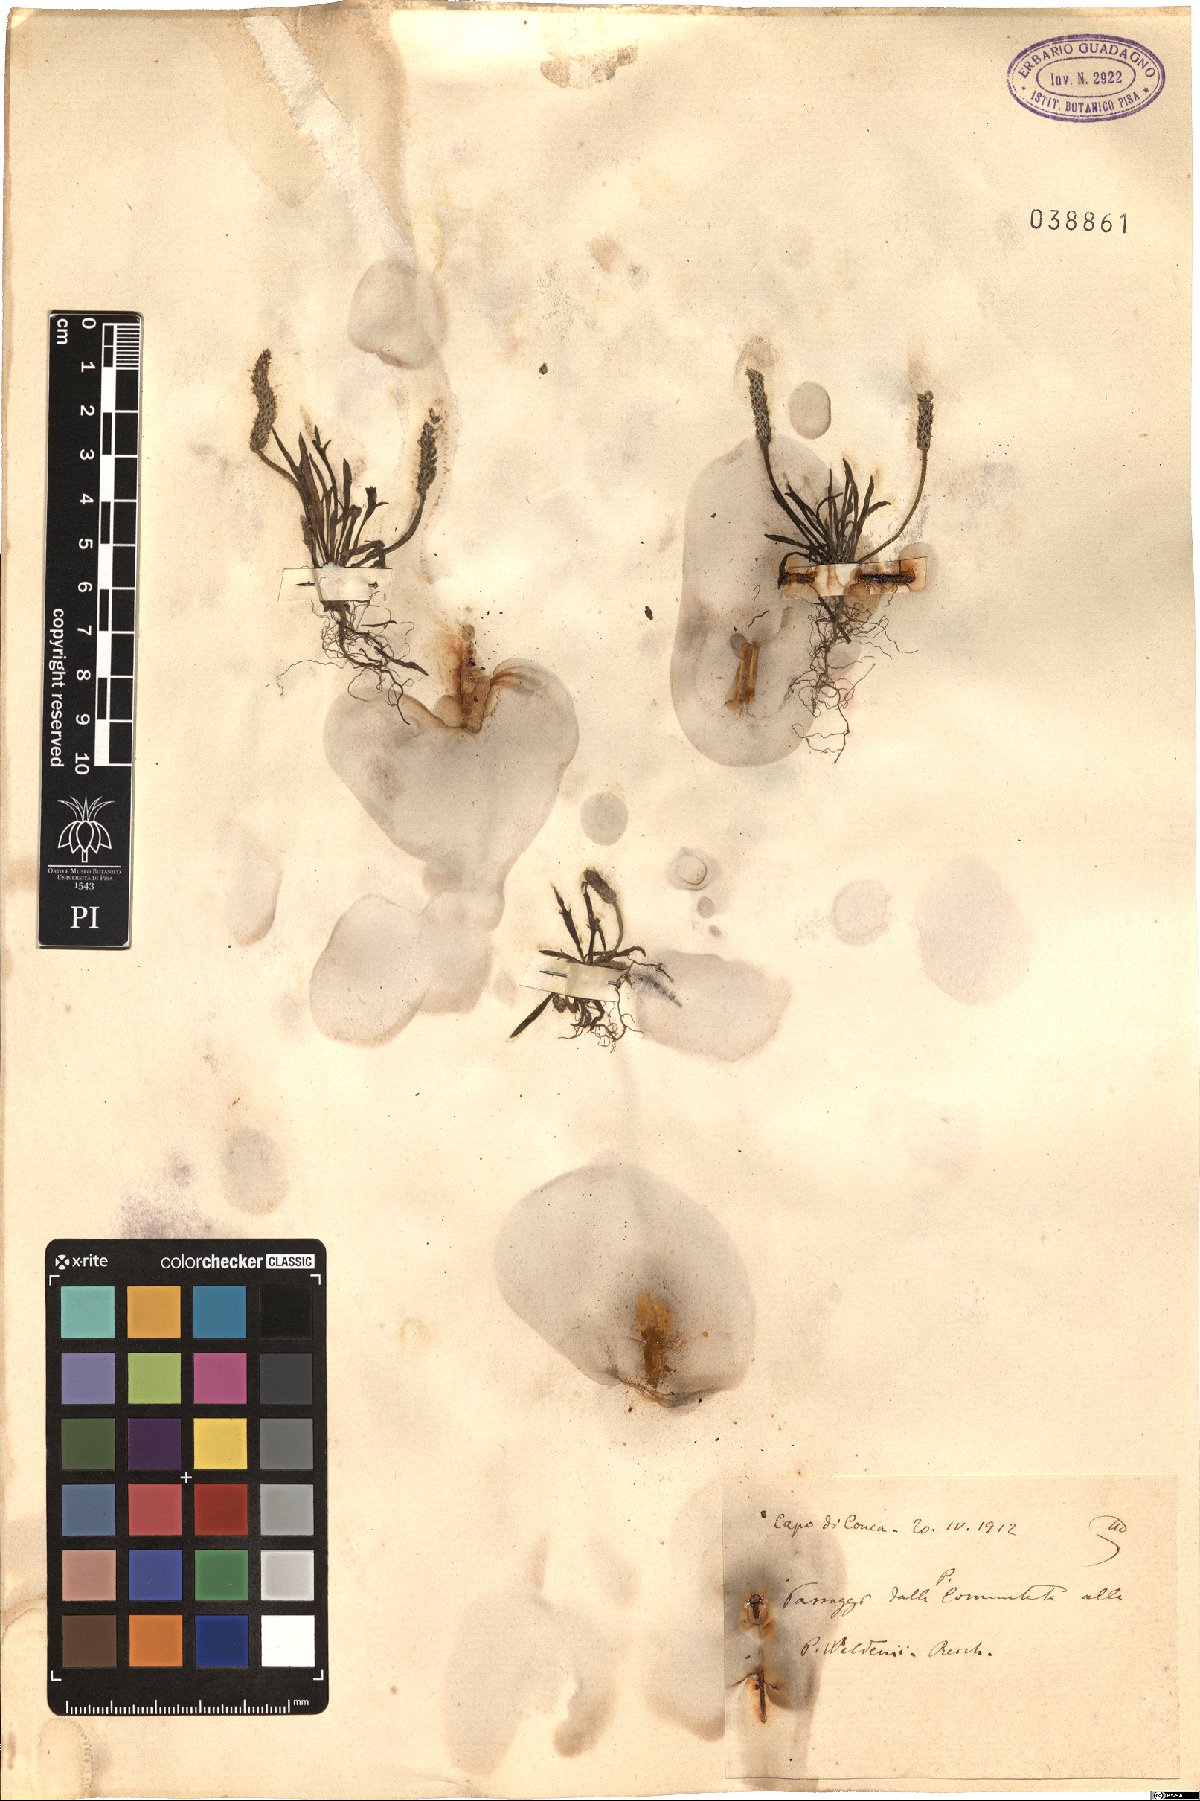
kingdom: Plantae
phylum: Tracheophyta
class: Magnoliopsida
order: Lamiales
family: Plantaginaceae
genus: Plantago
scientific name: Plantago weldenii
